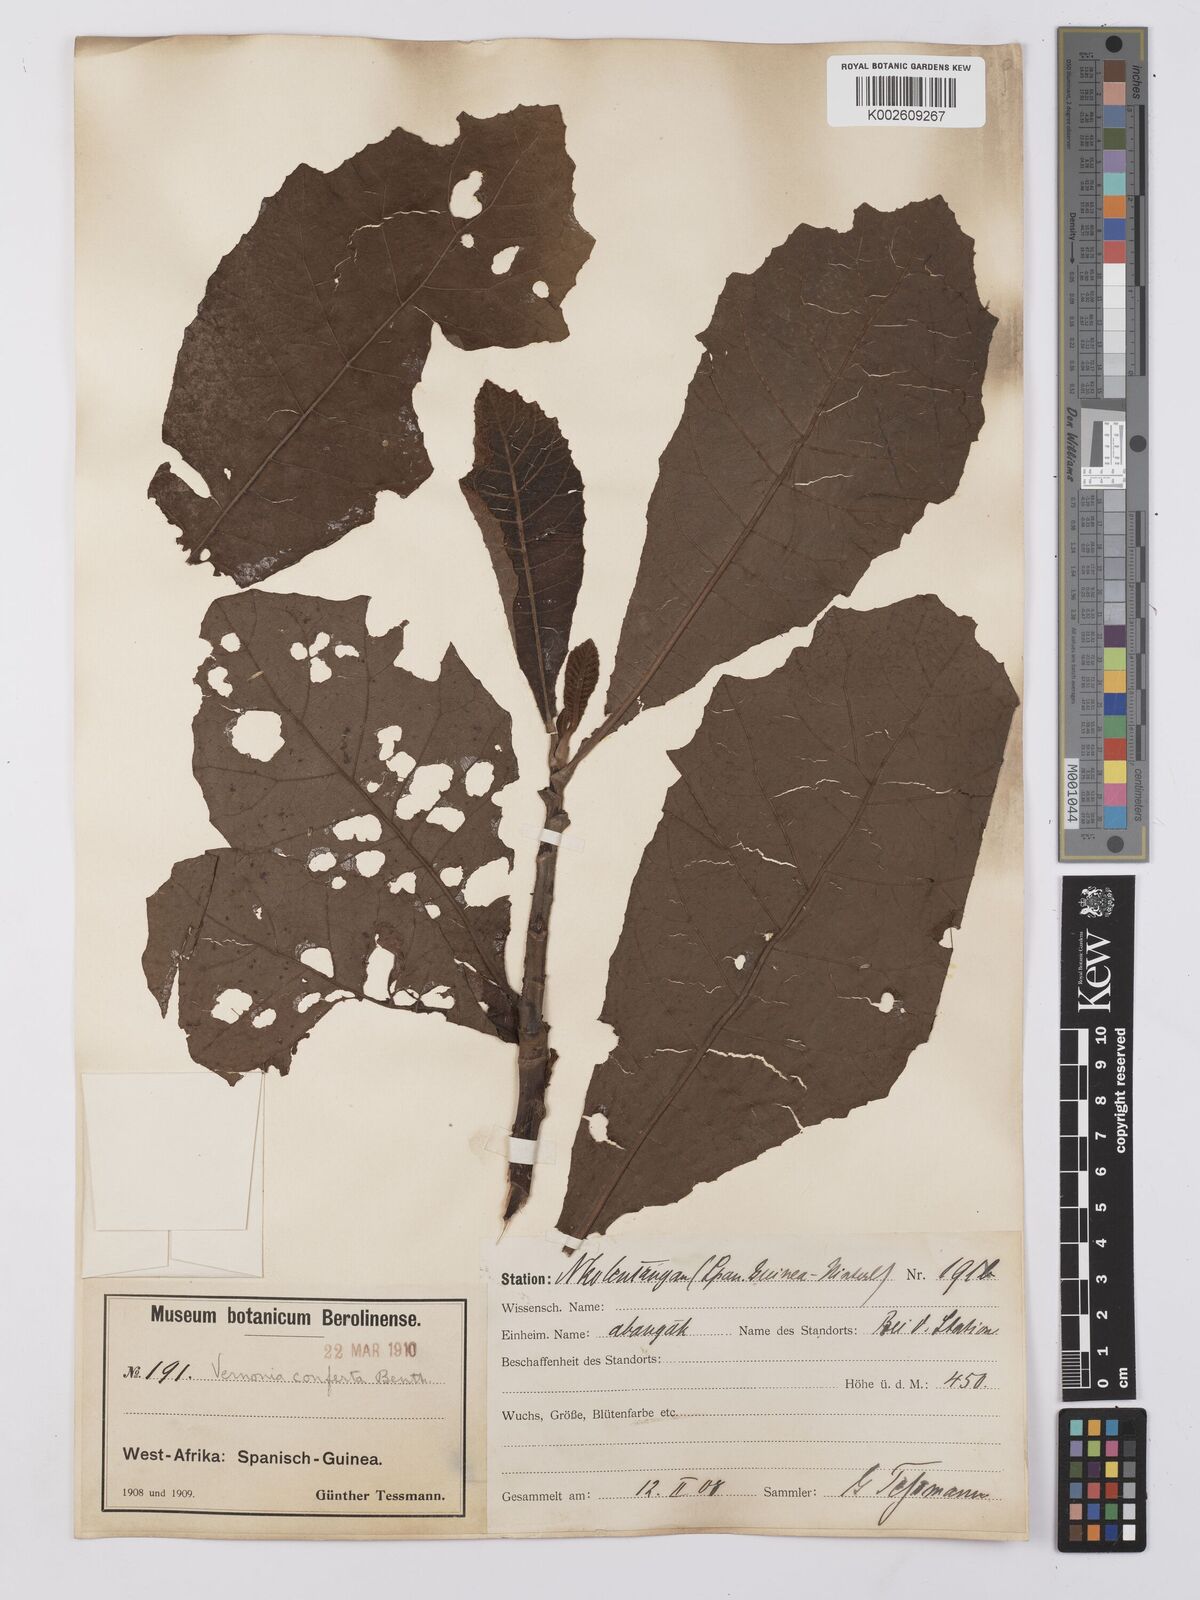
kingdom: Plantae
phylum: Tracheophyta
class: Magnoliopsida
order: Asterales
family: Asteraceae
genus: Monosis
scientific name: Monosis conferta
